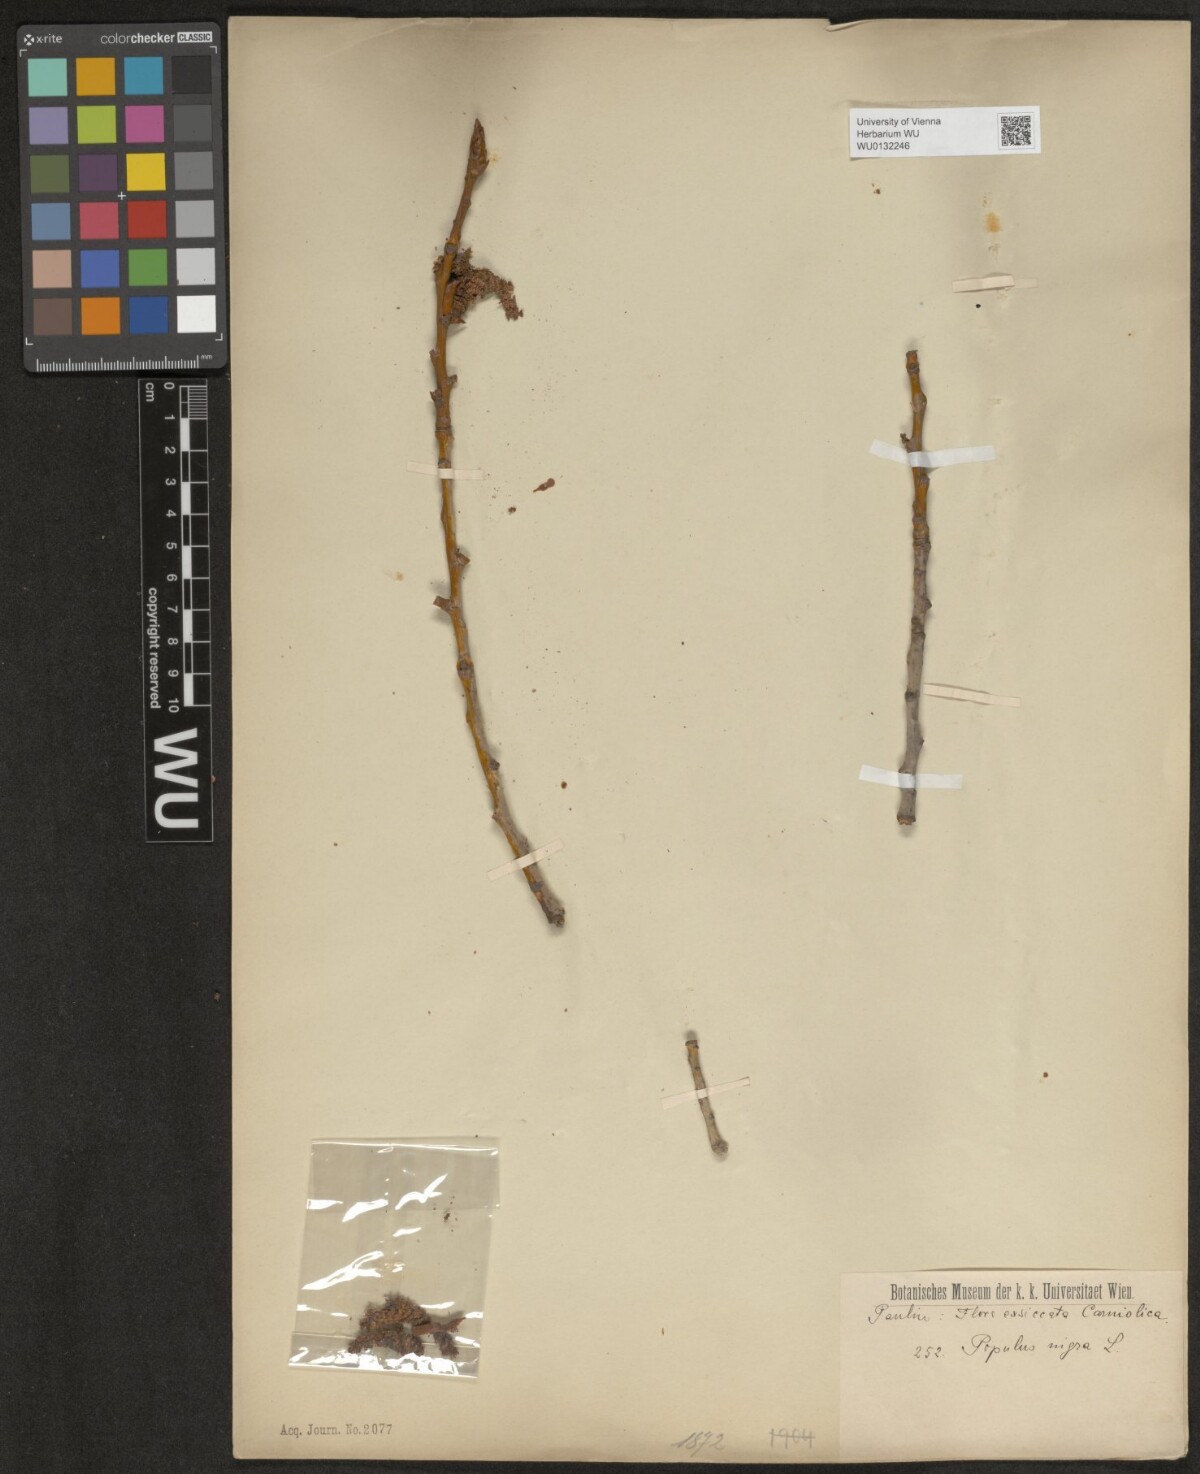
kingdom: Plantae
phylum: Tracheophyta
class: Magnoliopsida
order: Malpighiales
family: Salicaceae
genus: Populus
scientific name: Populus nigra
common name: Black poplar
